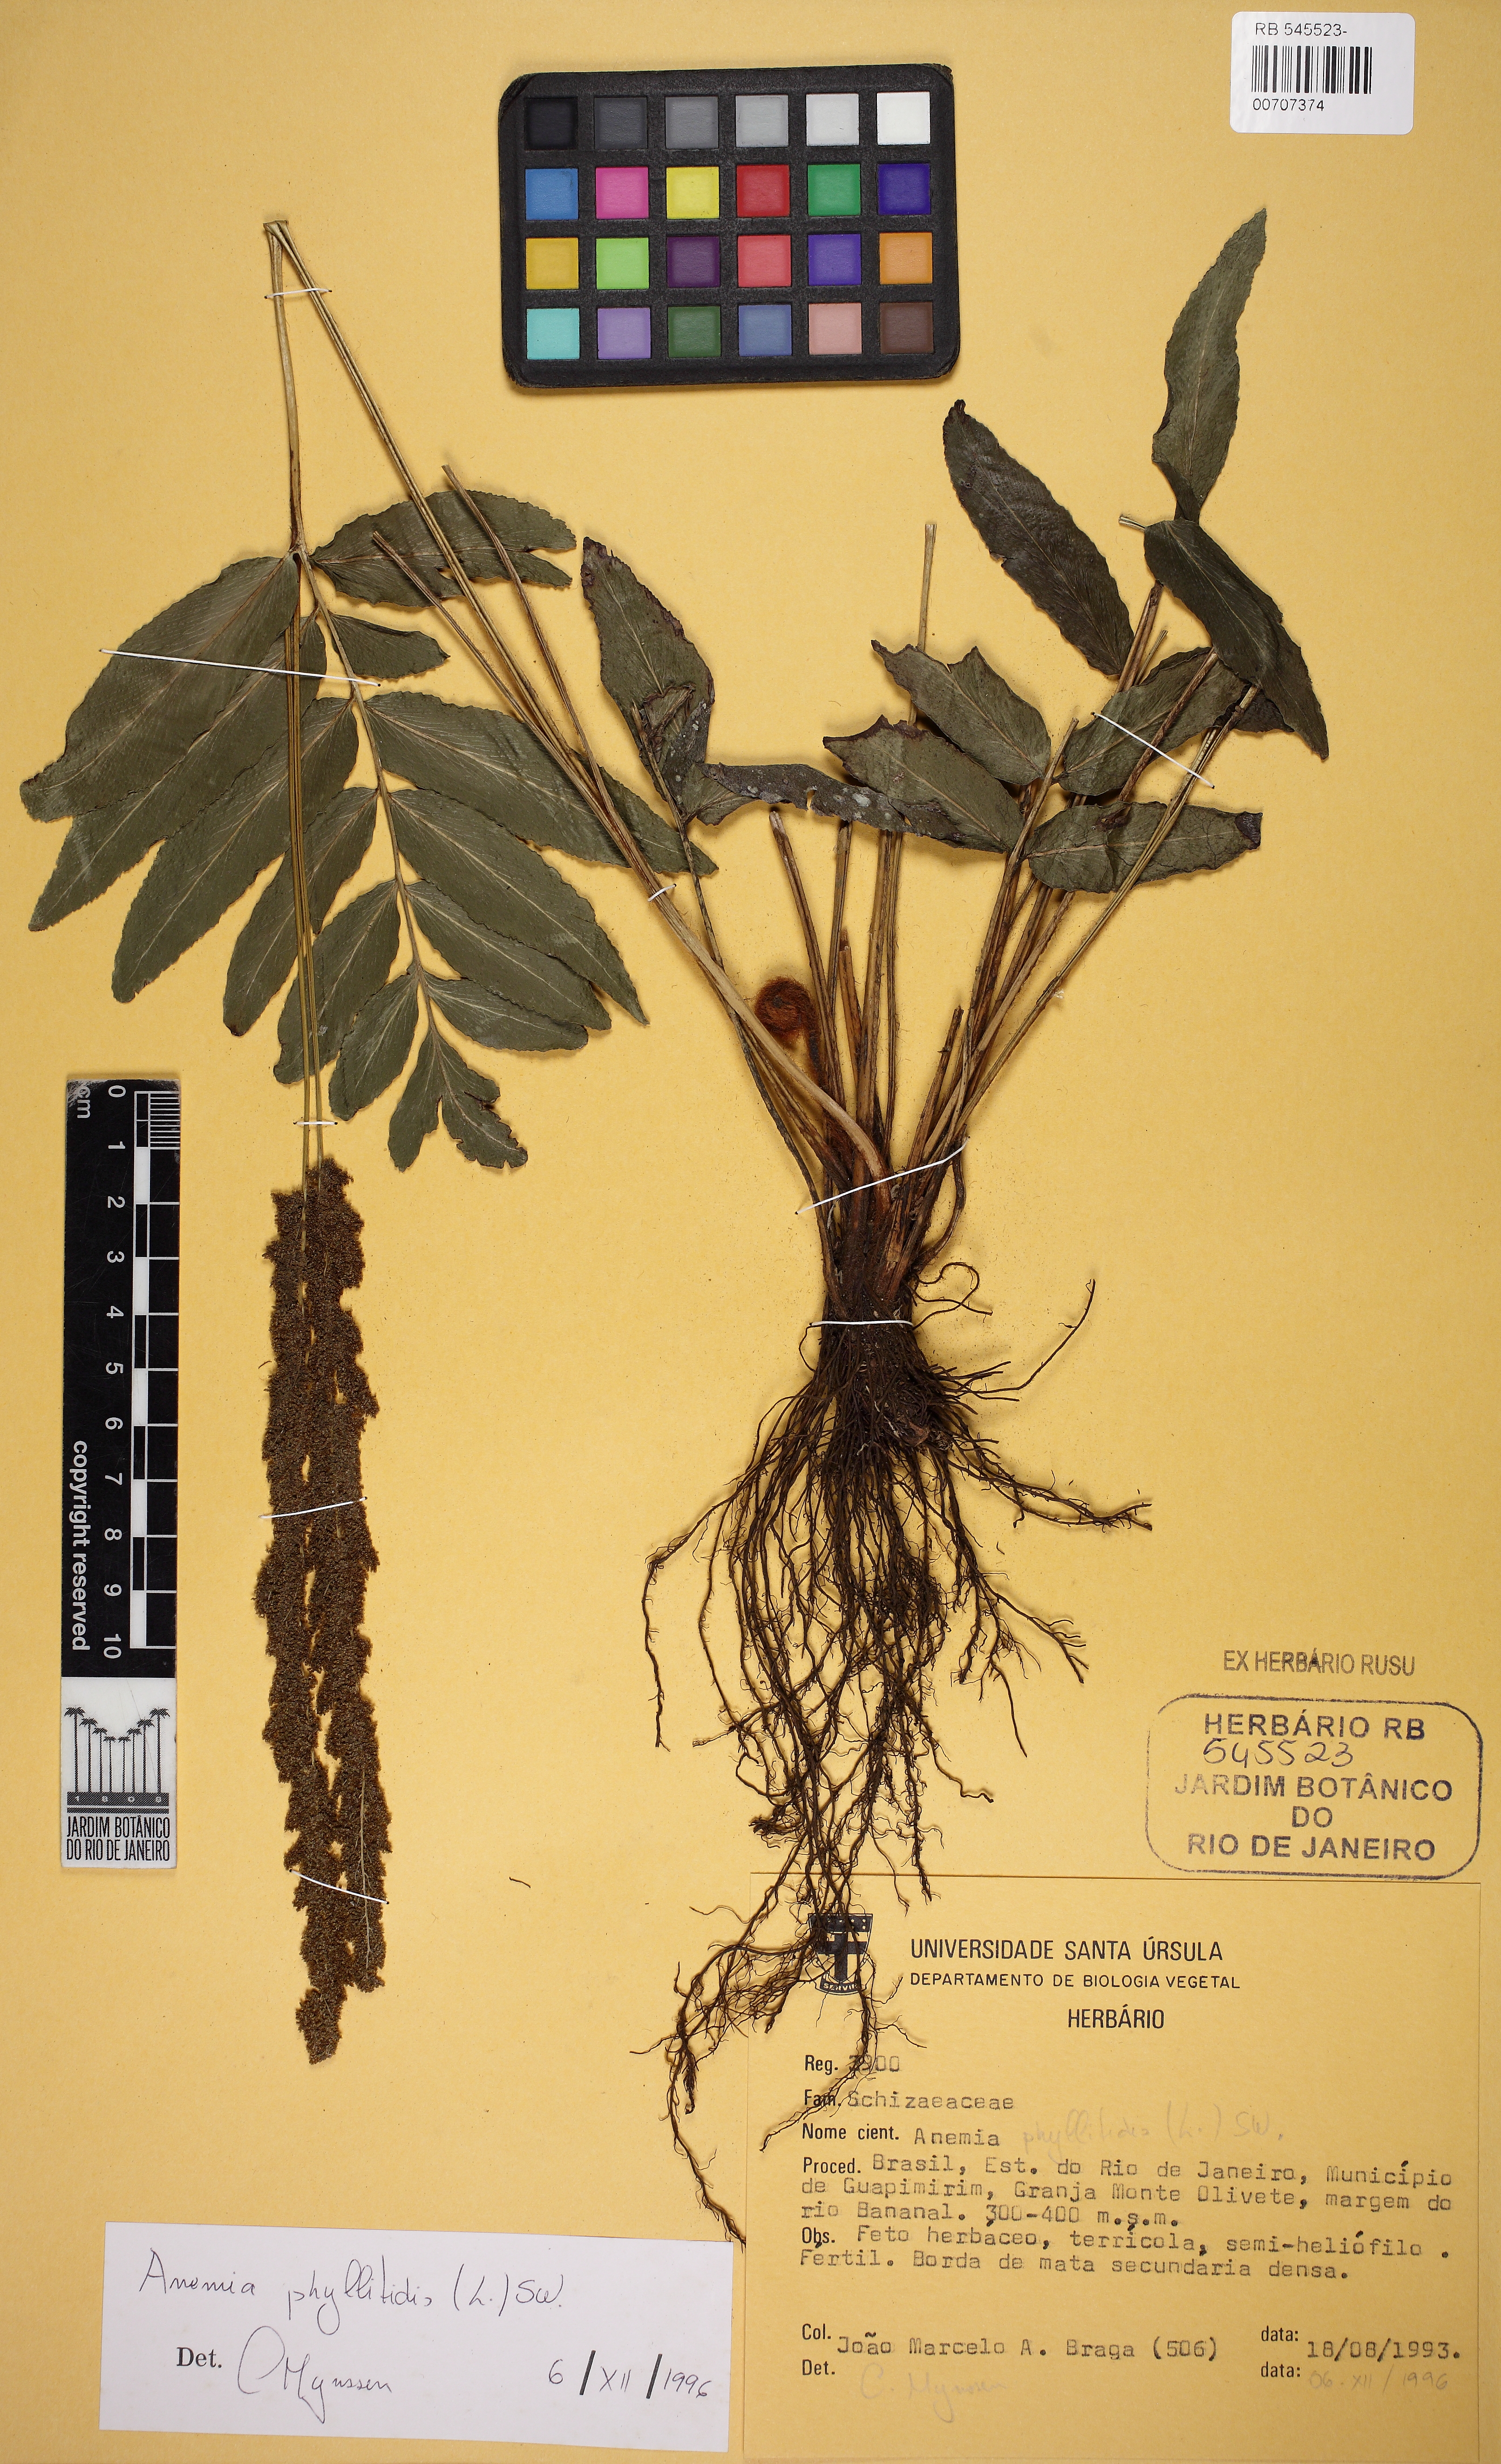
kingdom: Plantae
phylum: Tracheophyta
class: Polypodiopsida
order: Schizaeales
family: Anemiaceae
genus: Anemia
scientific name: Anemia phyllitidis
